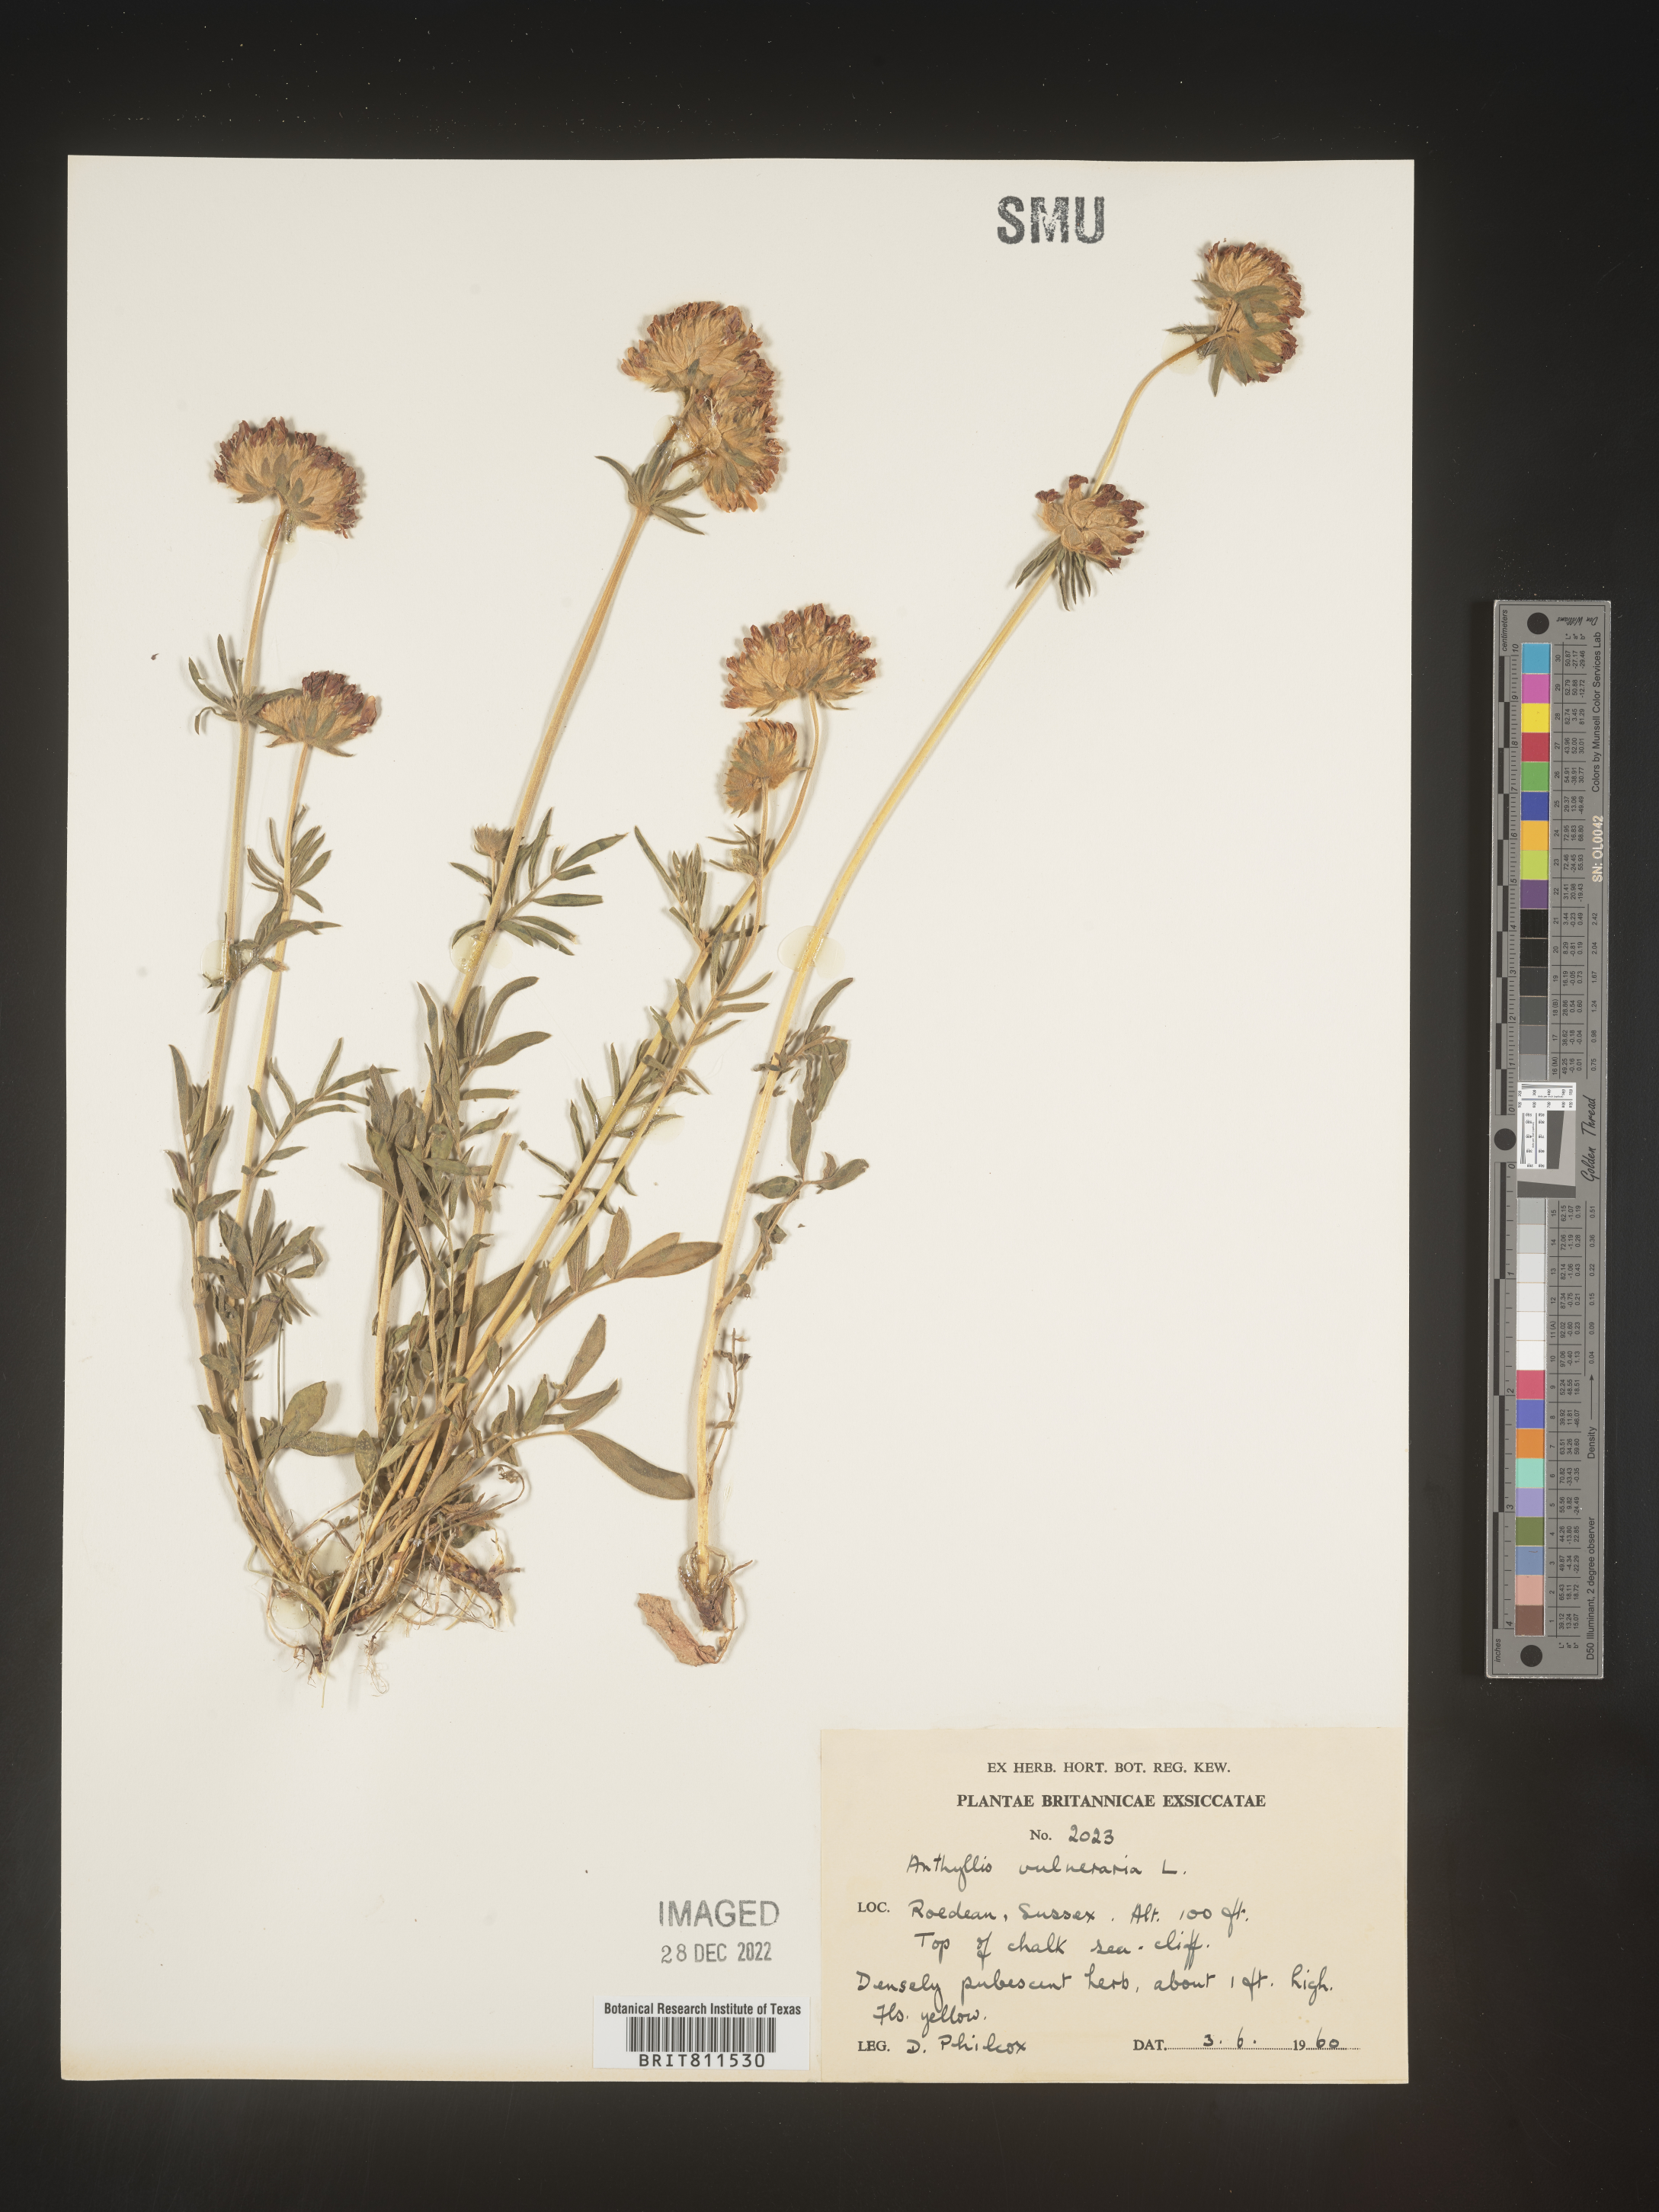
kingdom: Plantae
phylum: Tracheophyta
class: Magnoliopsida
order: Fabales
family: Fabaceae
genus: Anthyllis
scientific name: Anthyllis vulneraria
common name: Kidney vetch
